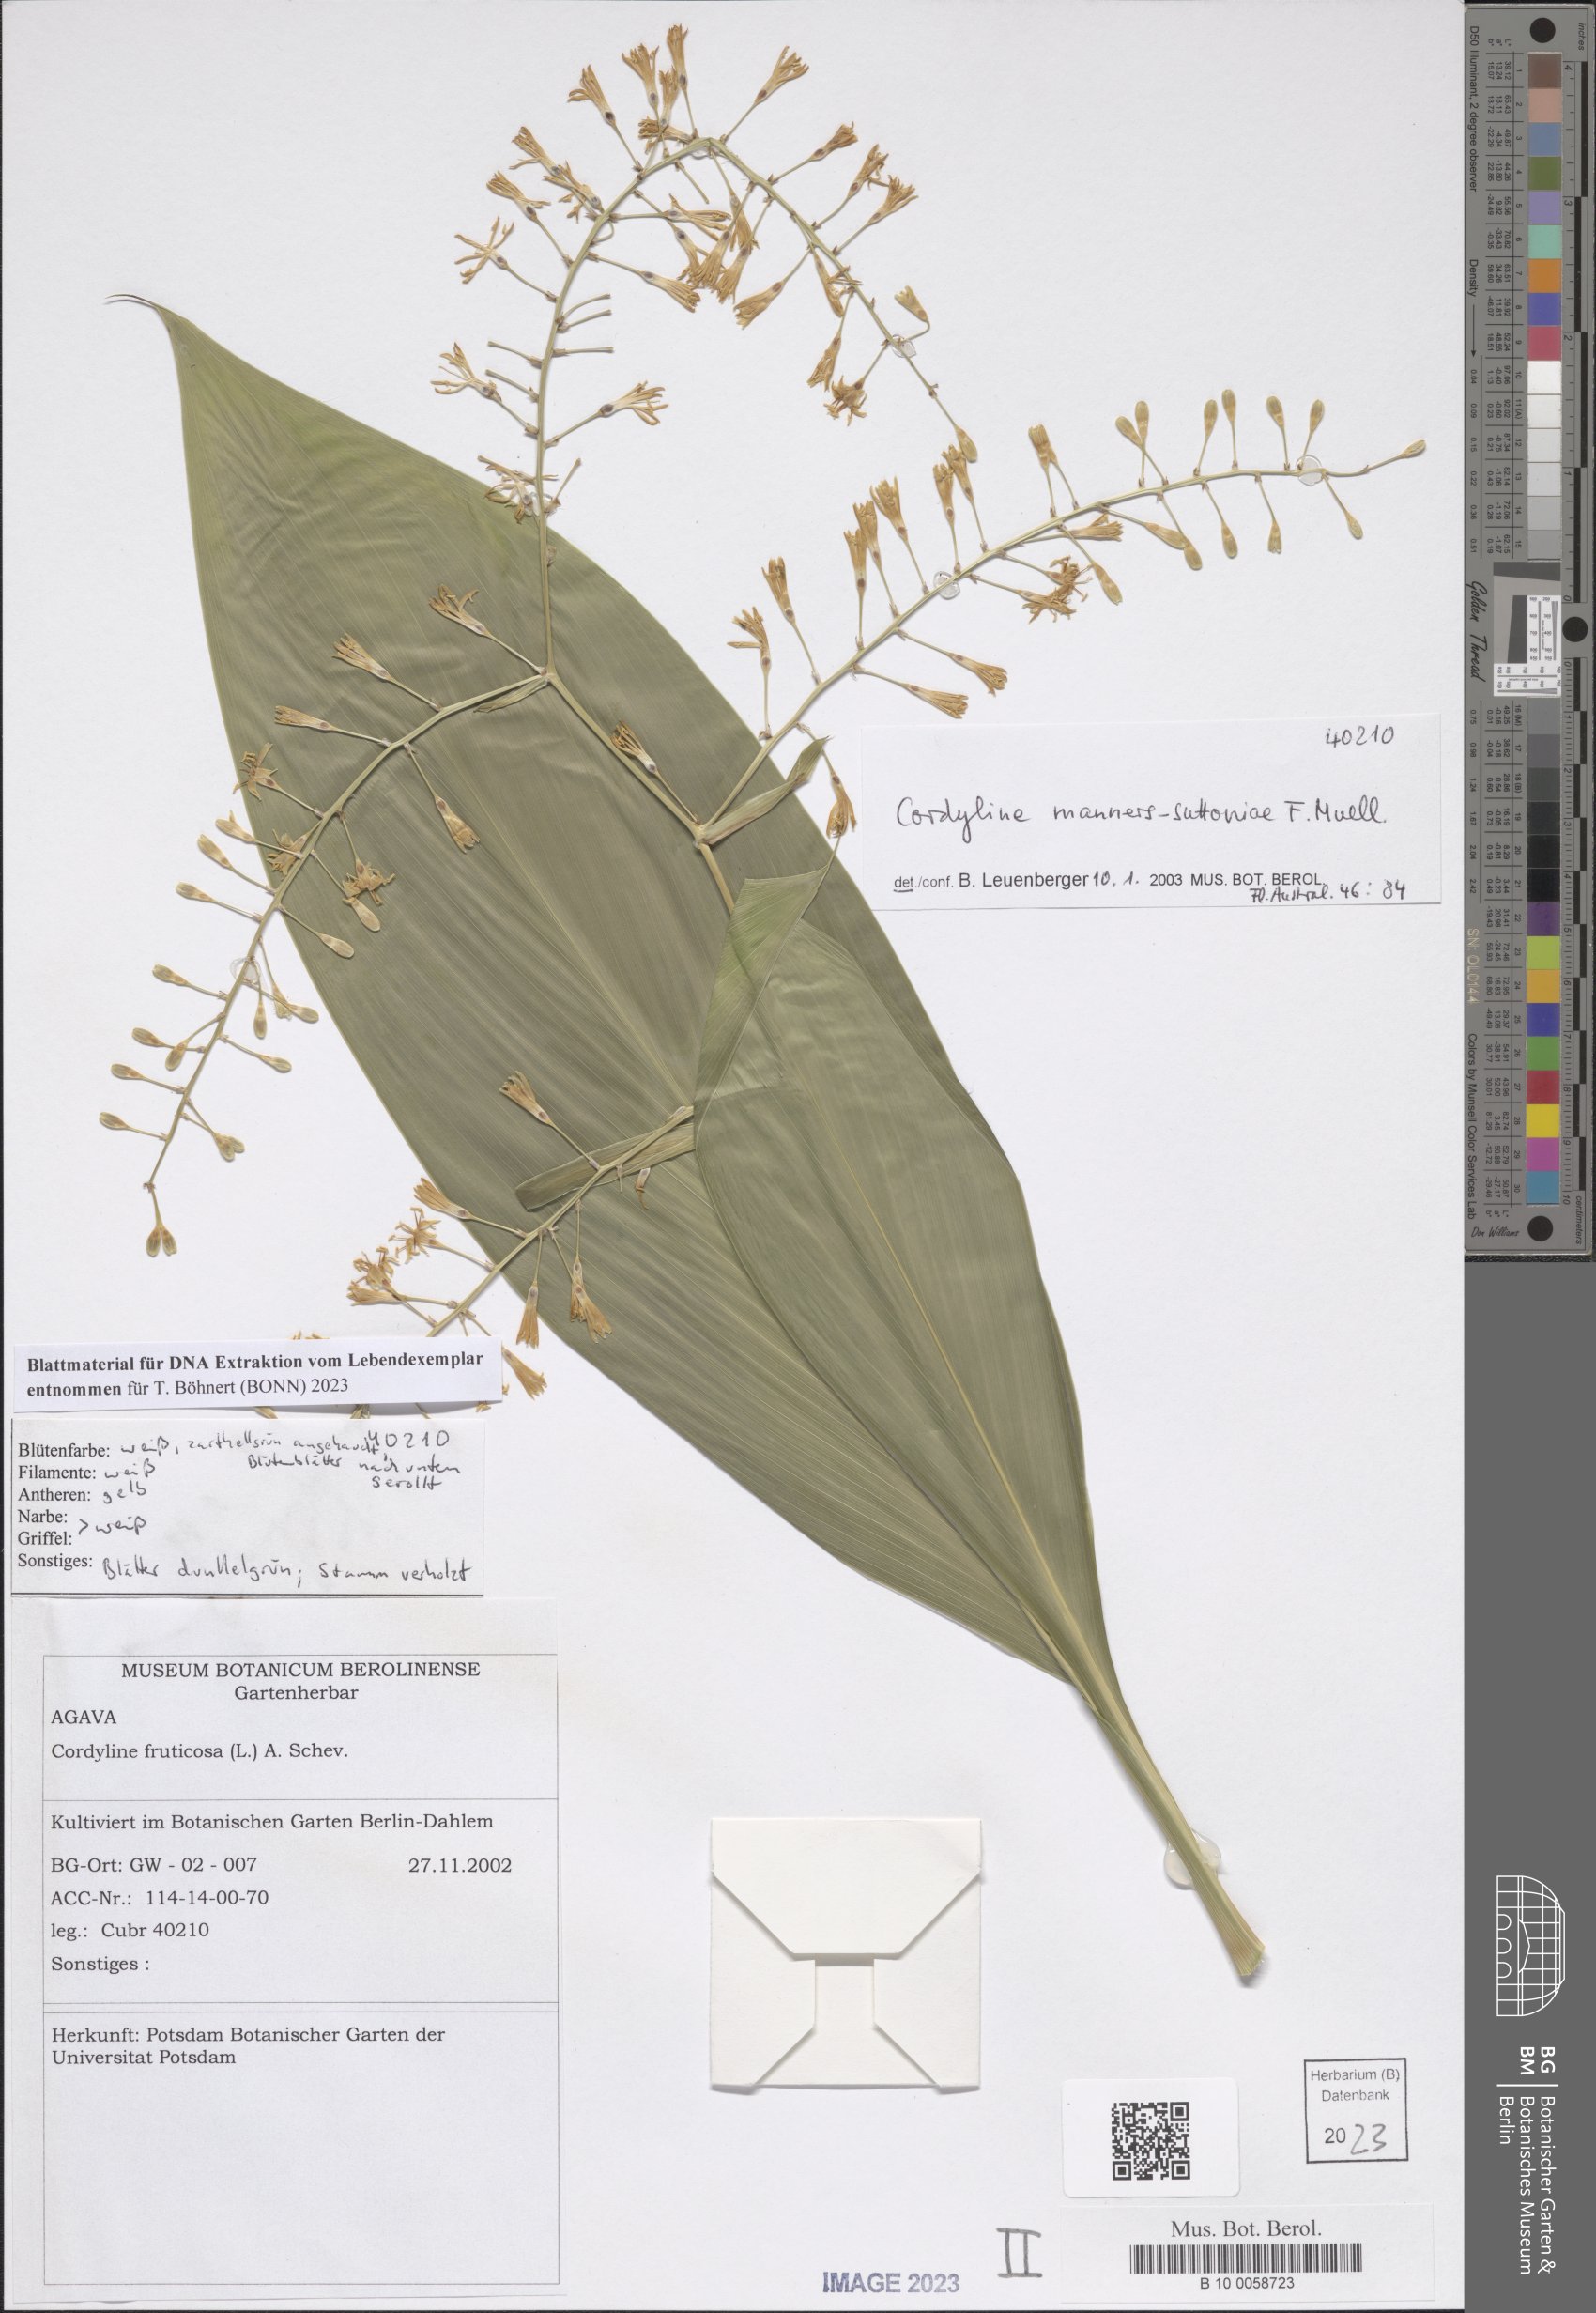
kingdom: Plantae
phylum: Tracheophyta
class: Liliopsida
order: Asparagales
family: Asparagaceae
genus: Cordyline
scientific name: Cordyline manners-suttoniae
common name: Giant palm-lily
